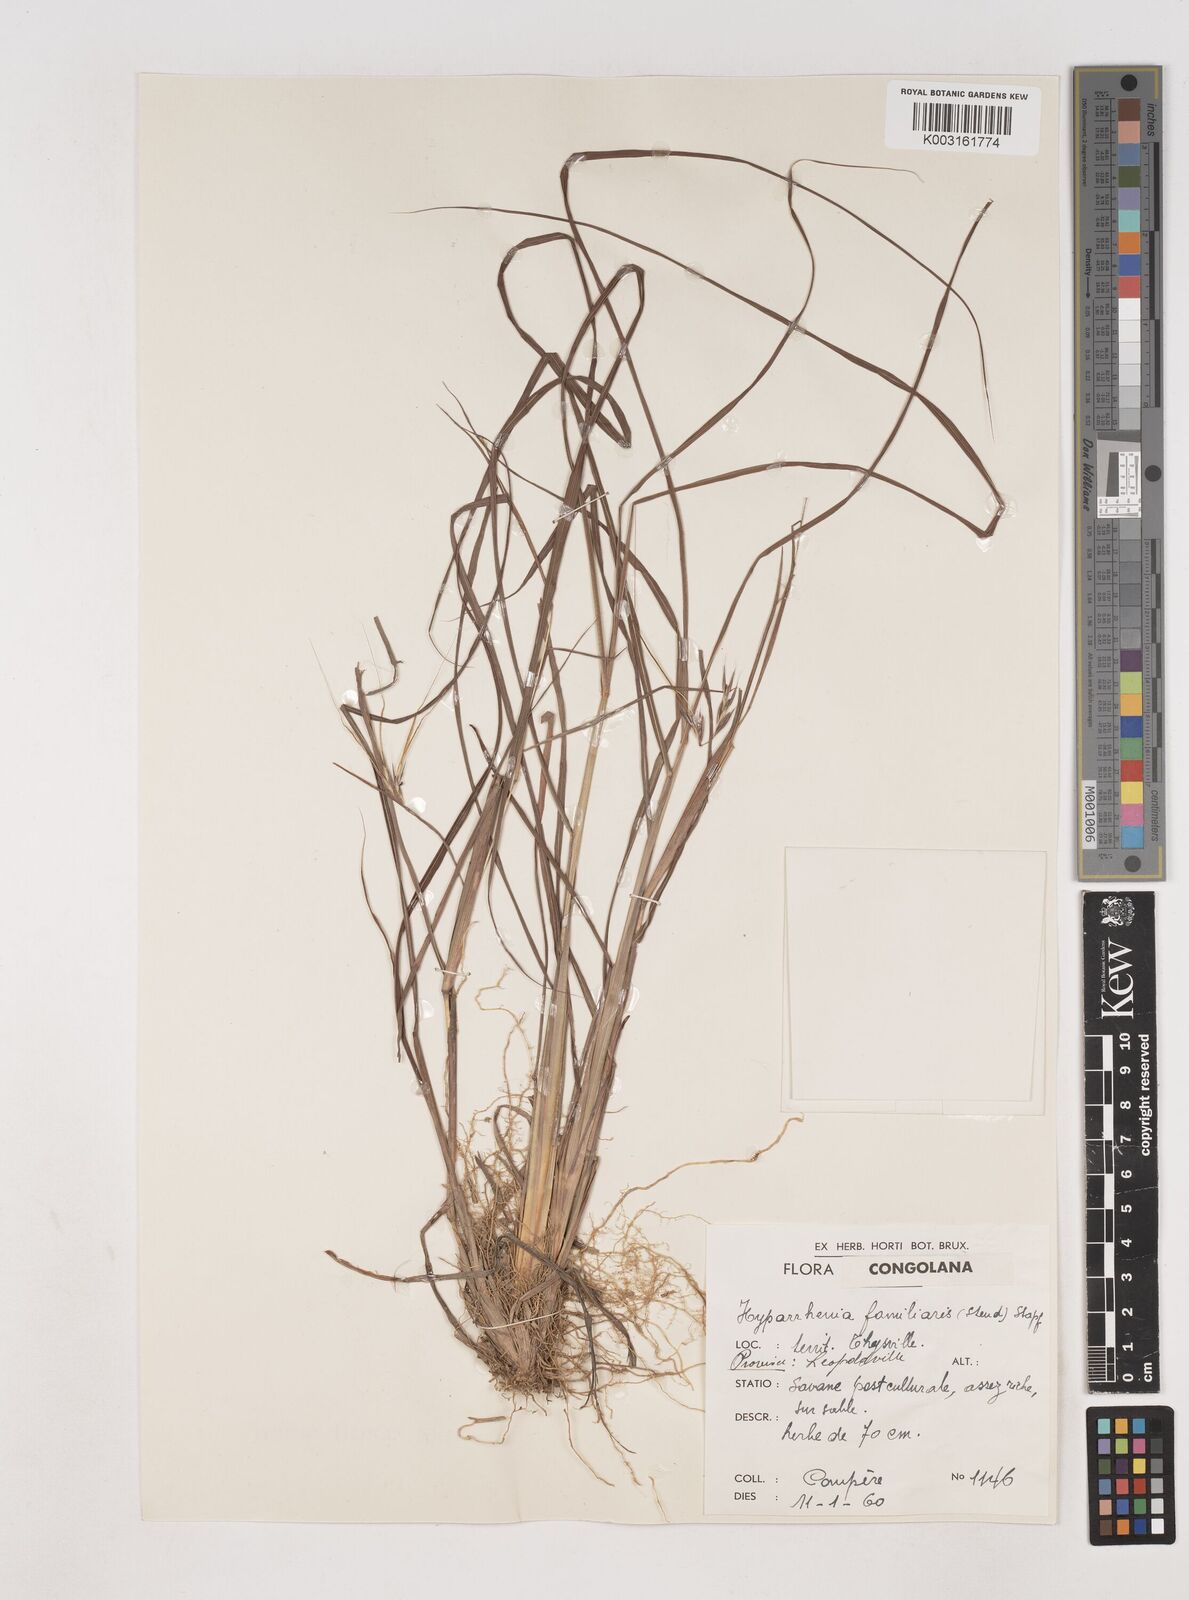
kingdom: Plantae
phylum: Tracheophyta
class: Liliopsida
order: Poales
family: Poaceae
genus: Hyparrhenia
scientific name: Hyparrhenia familiaris
